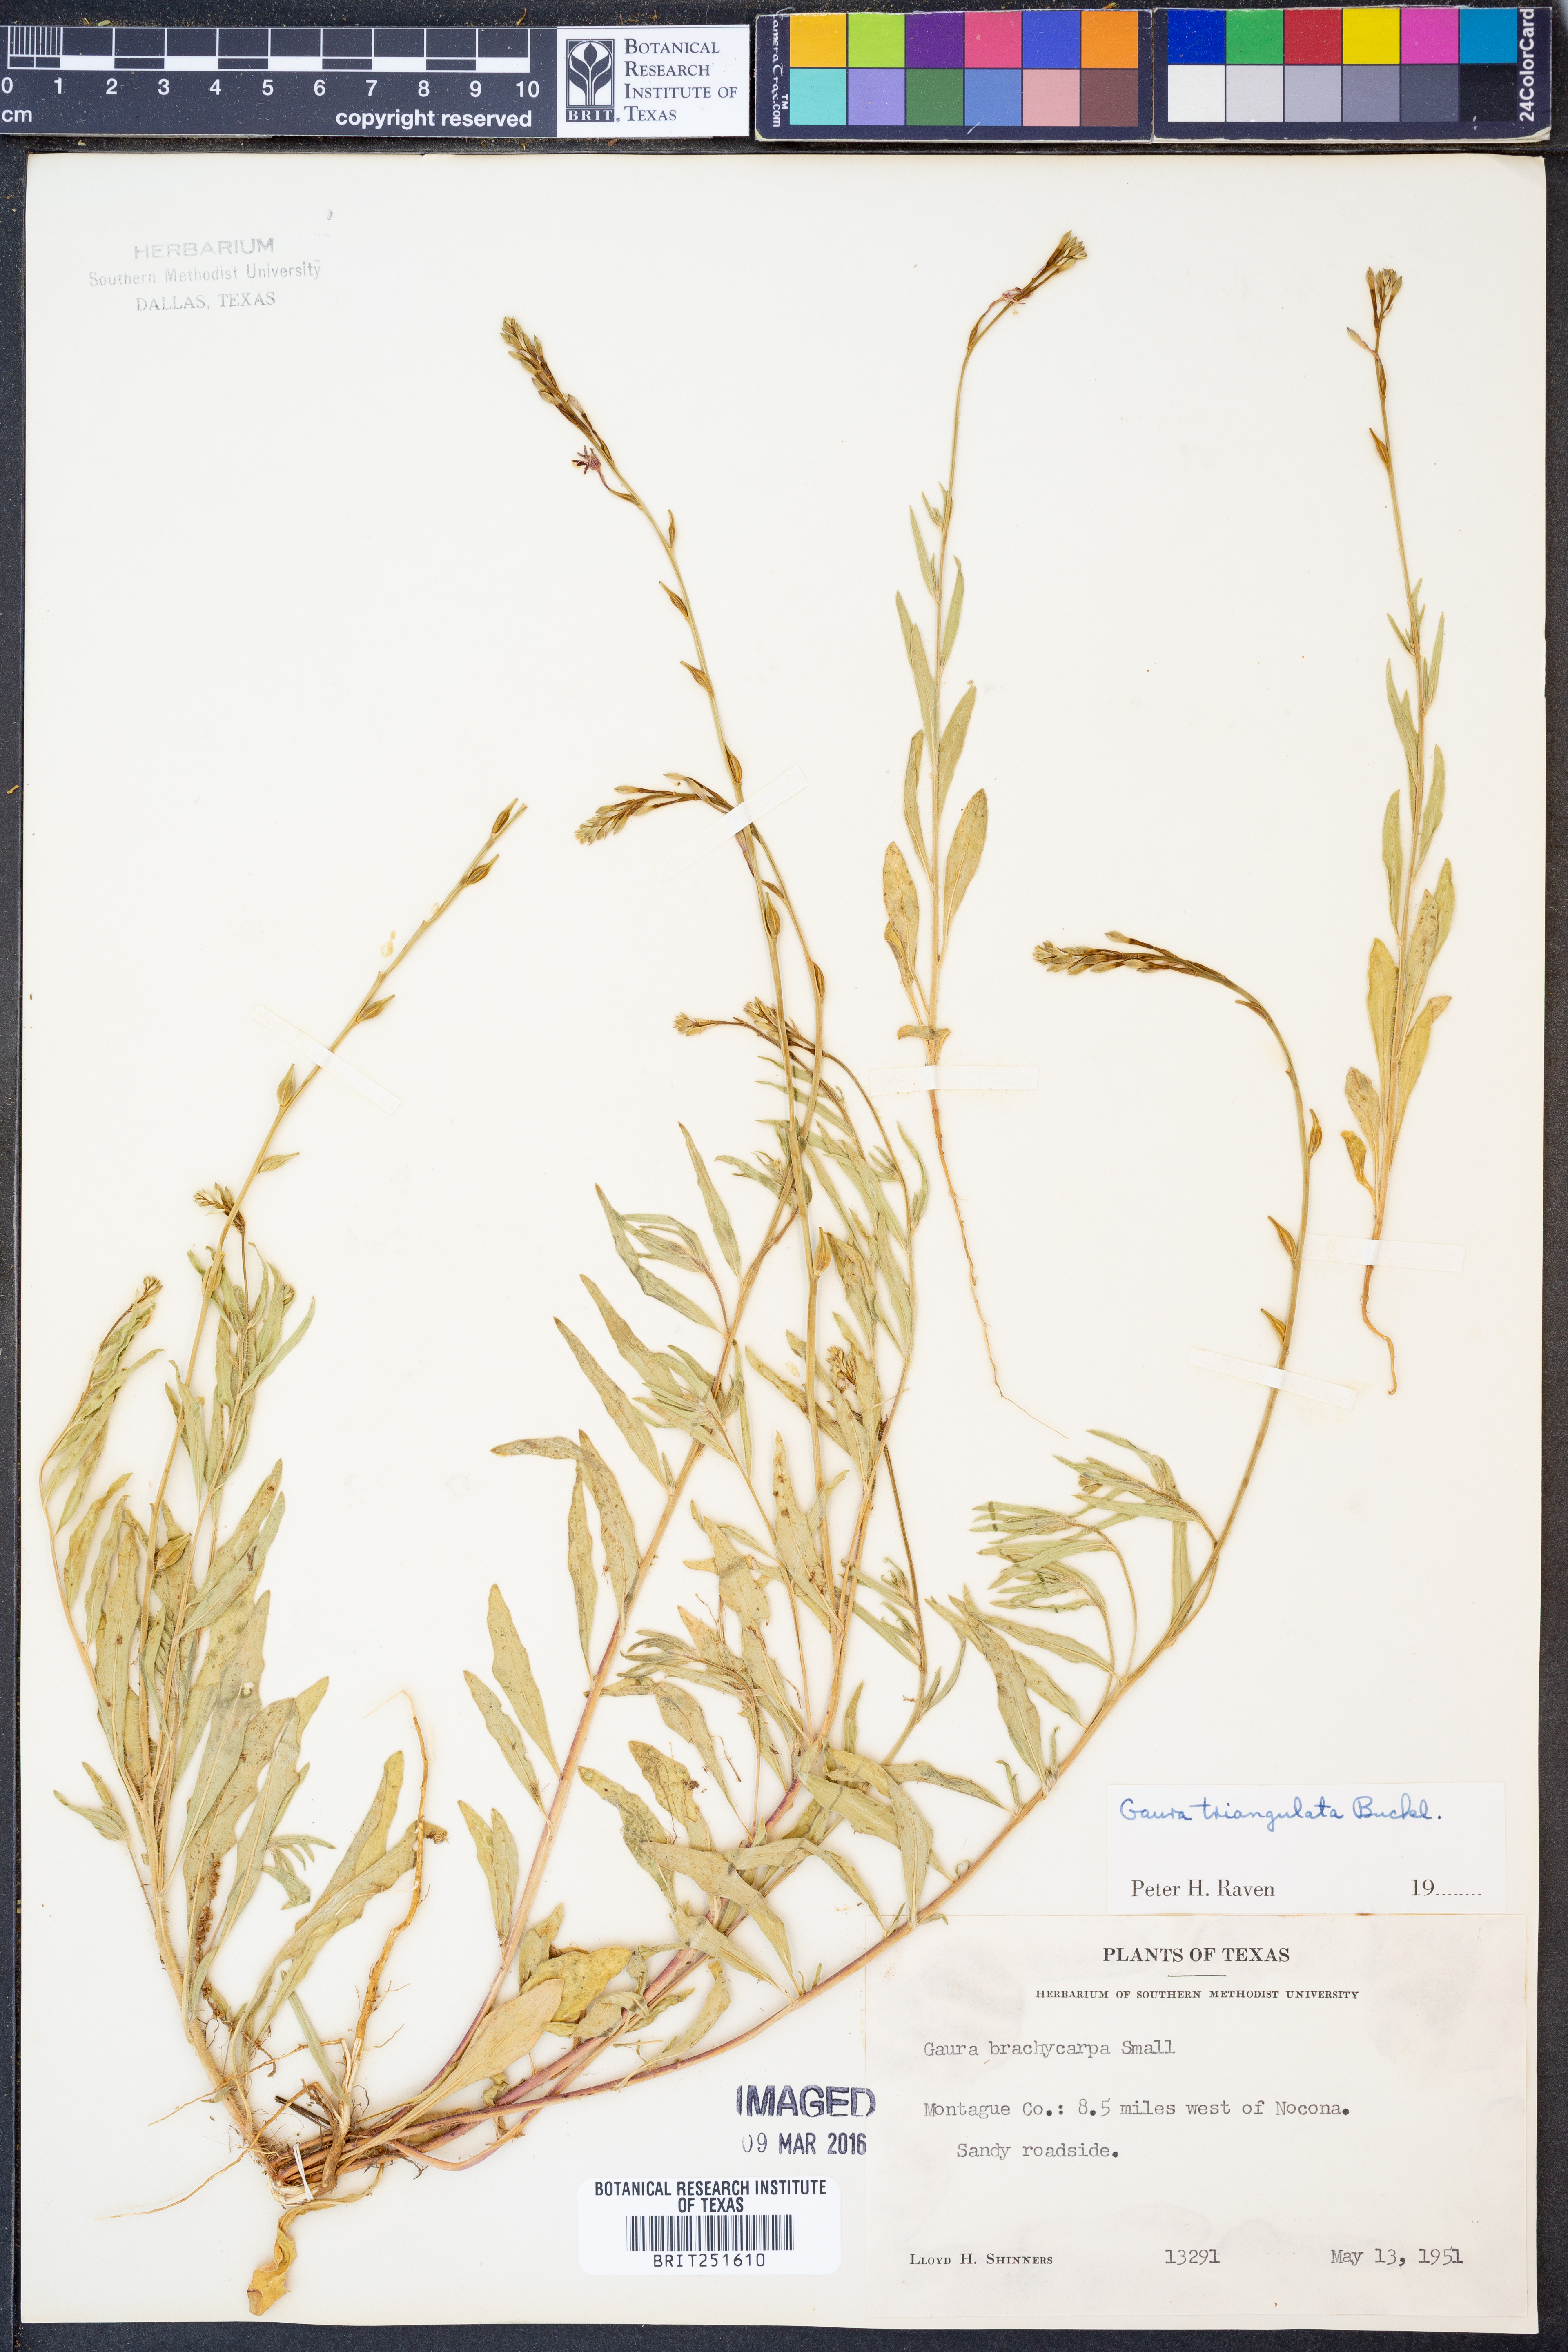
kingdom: Plantae
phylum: Tracheophyta
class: Magnoliopsida
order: Myrtales
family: Onagraceae
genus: Oenothera
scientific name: Oenothera triangulata
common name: Prairie beeblossom
